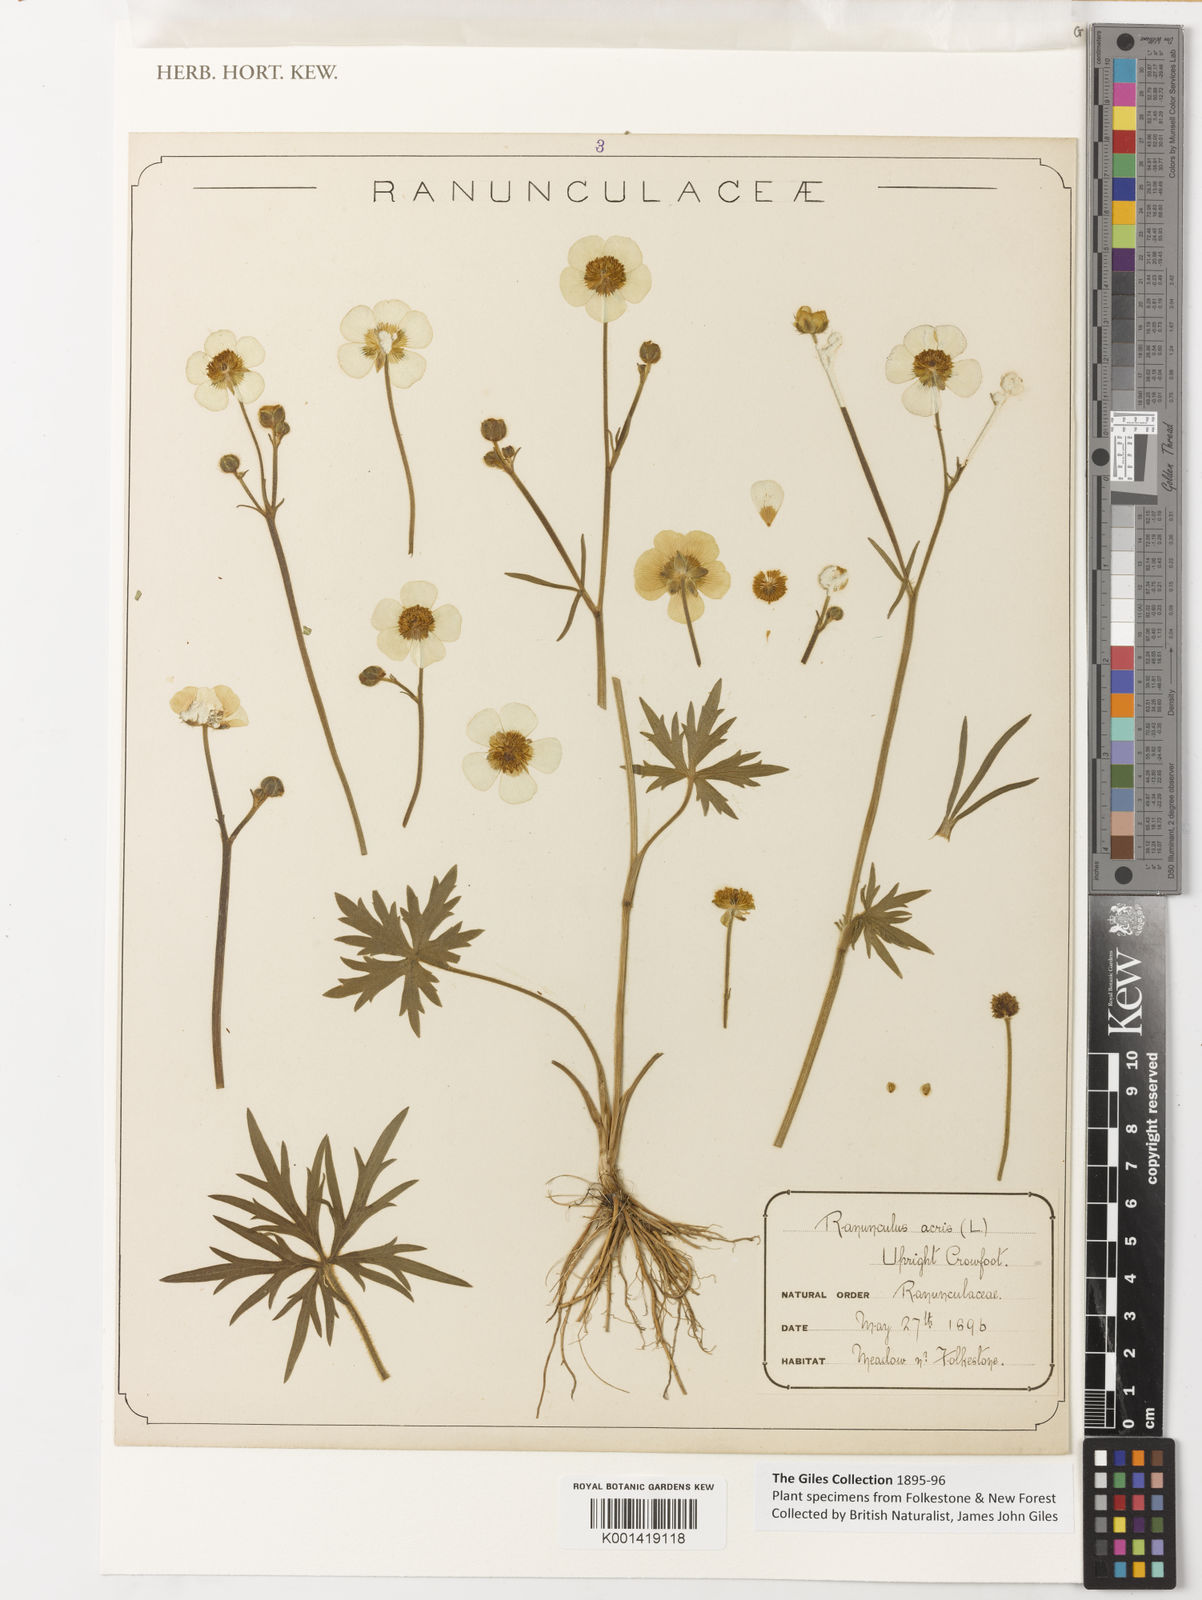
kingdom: Plantae
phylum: Tracheophyta
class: Magnoliopsida
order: Ranunculales
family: Ranunculaceae
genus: Ranunculus
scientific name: Ranunculus acris
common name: Meadow buttercup
